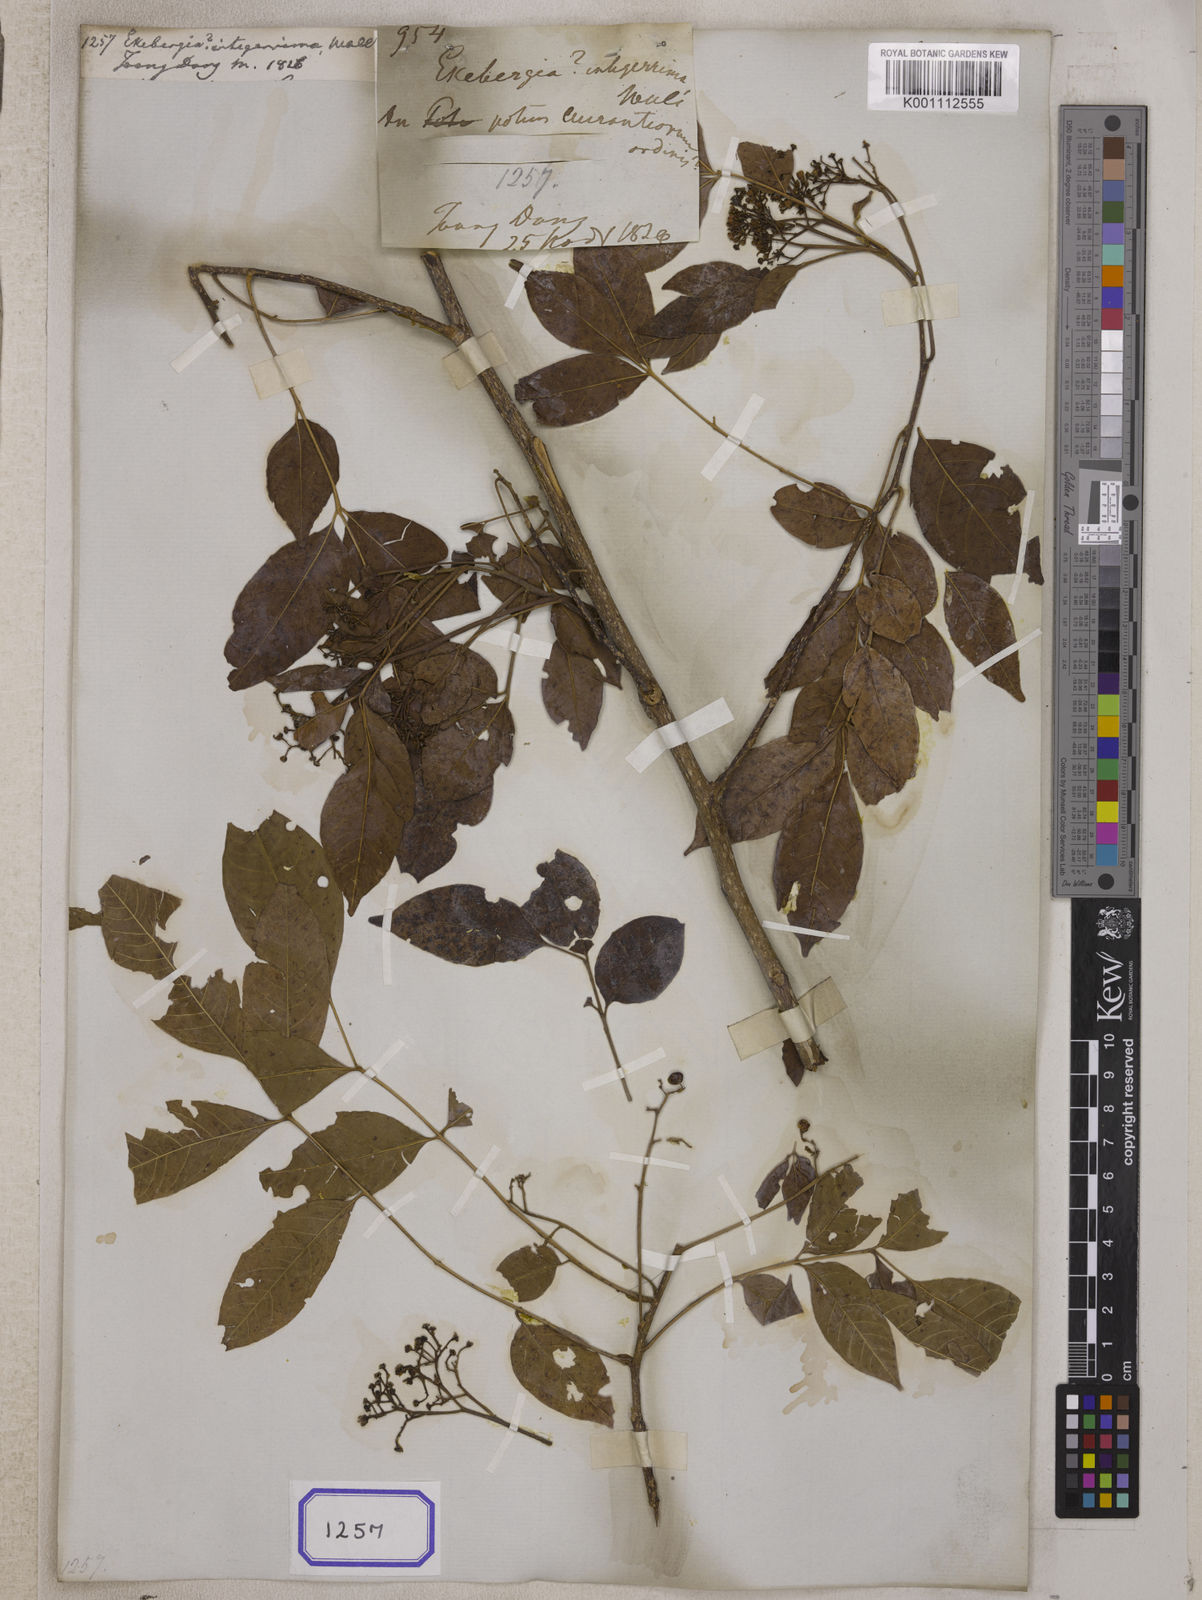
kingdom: Plantae
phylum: Tracheophyta
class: Magnoliopsida
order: Sapindales
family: Meliaceae
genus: Ekebergia
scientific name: Ekebergia
